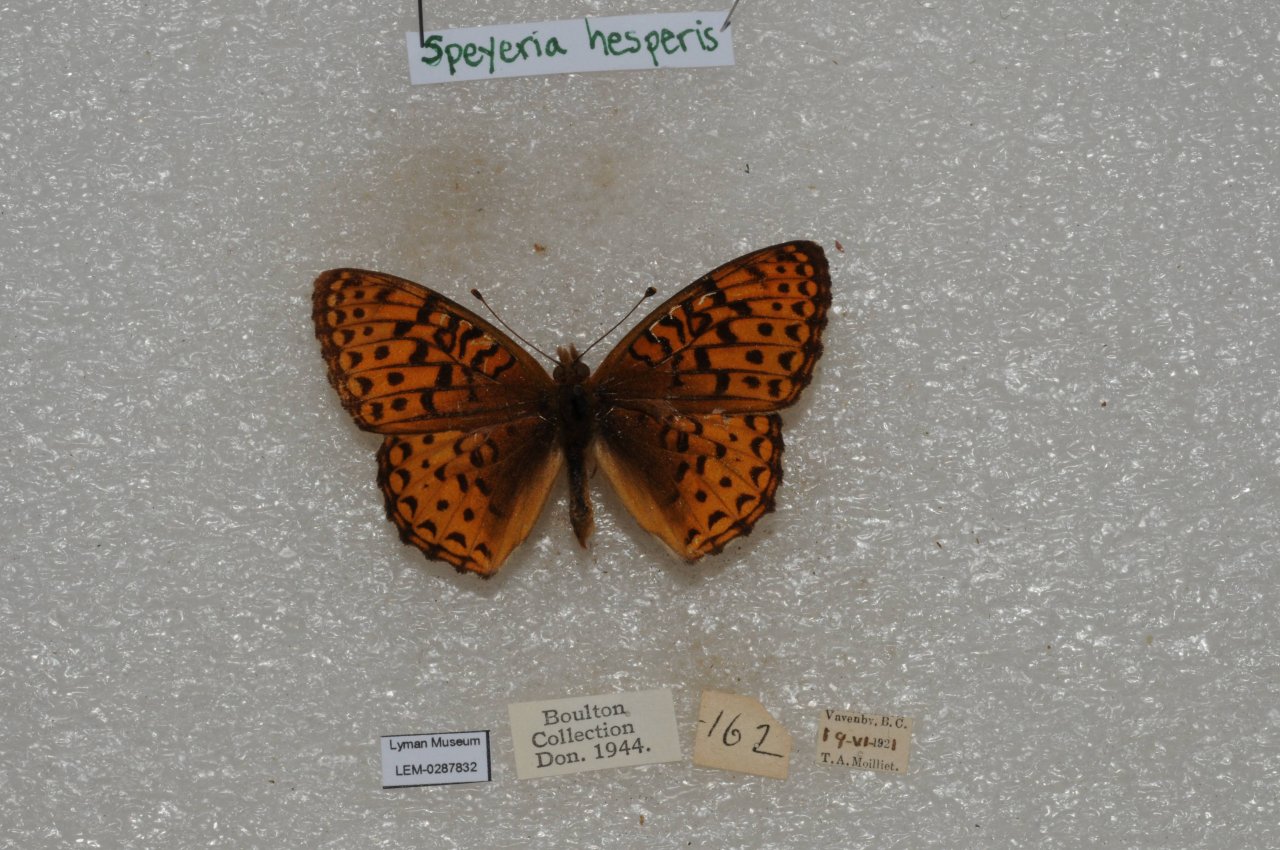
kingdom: Animalia
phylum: Arthropoda
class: Insecta
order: Lepidoptera
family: Nymphalidae
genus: Speyeria
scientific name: Speyeria atlantis
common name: Northwestern Fritillary
